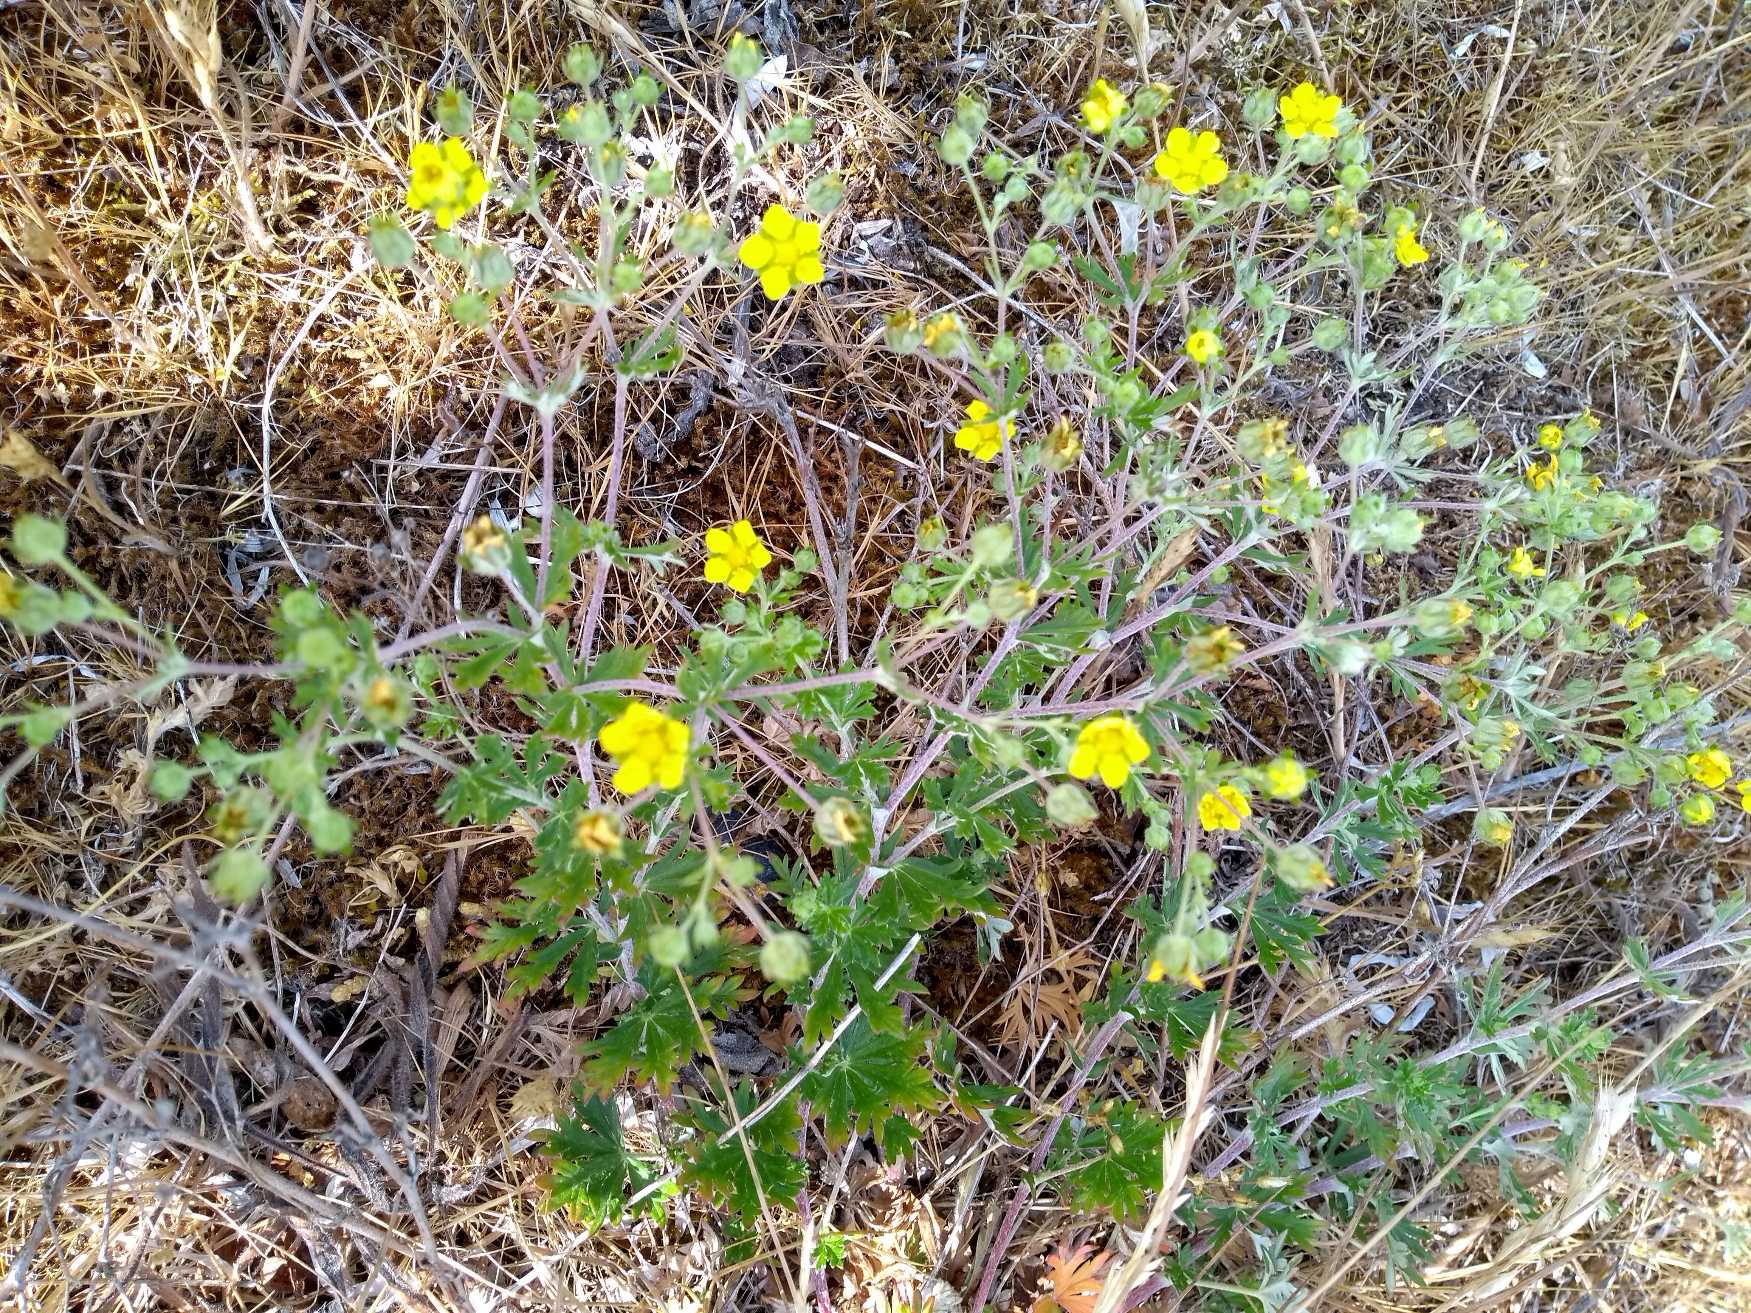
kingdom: Plantae
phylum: Tracheophyta
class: Magnoliopsida
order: Rosales
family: Rosaceae
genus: Potentilla
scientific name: Potentilla argentea
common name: Sølv-potentil
